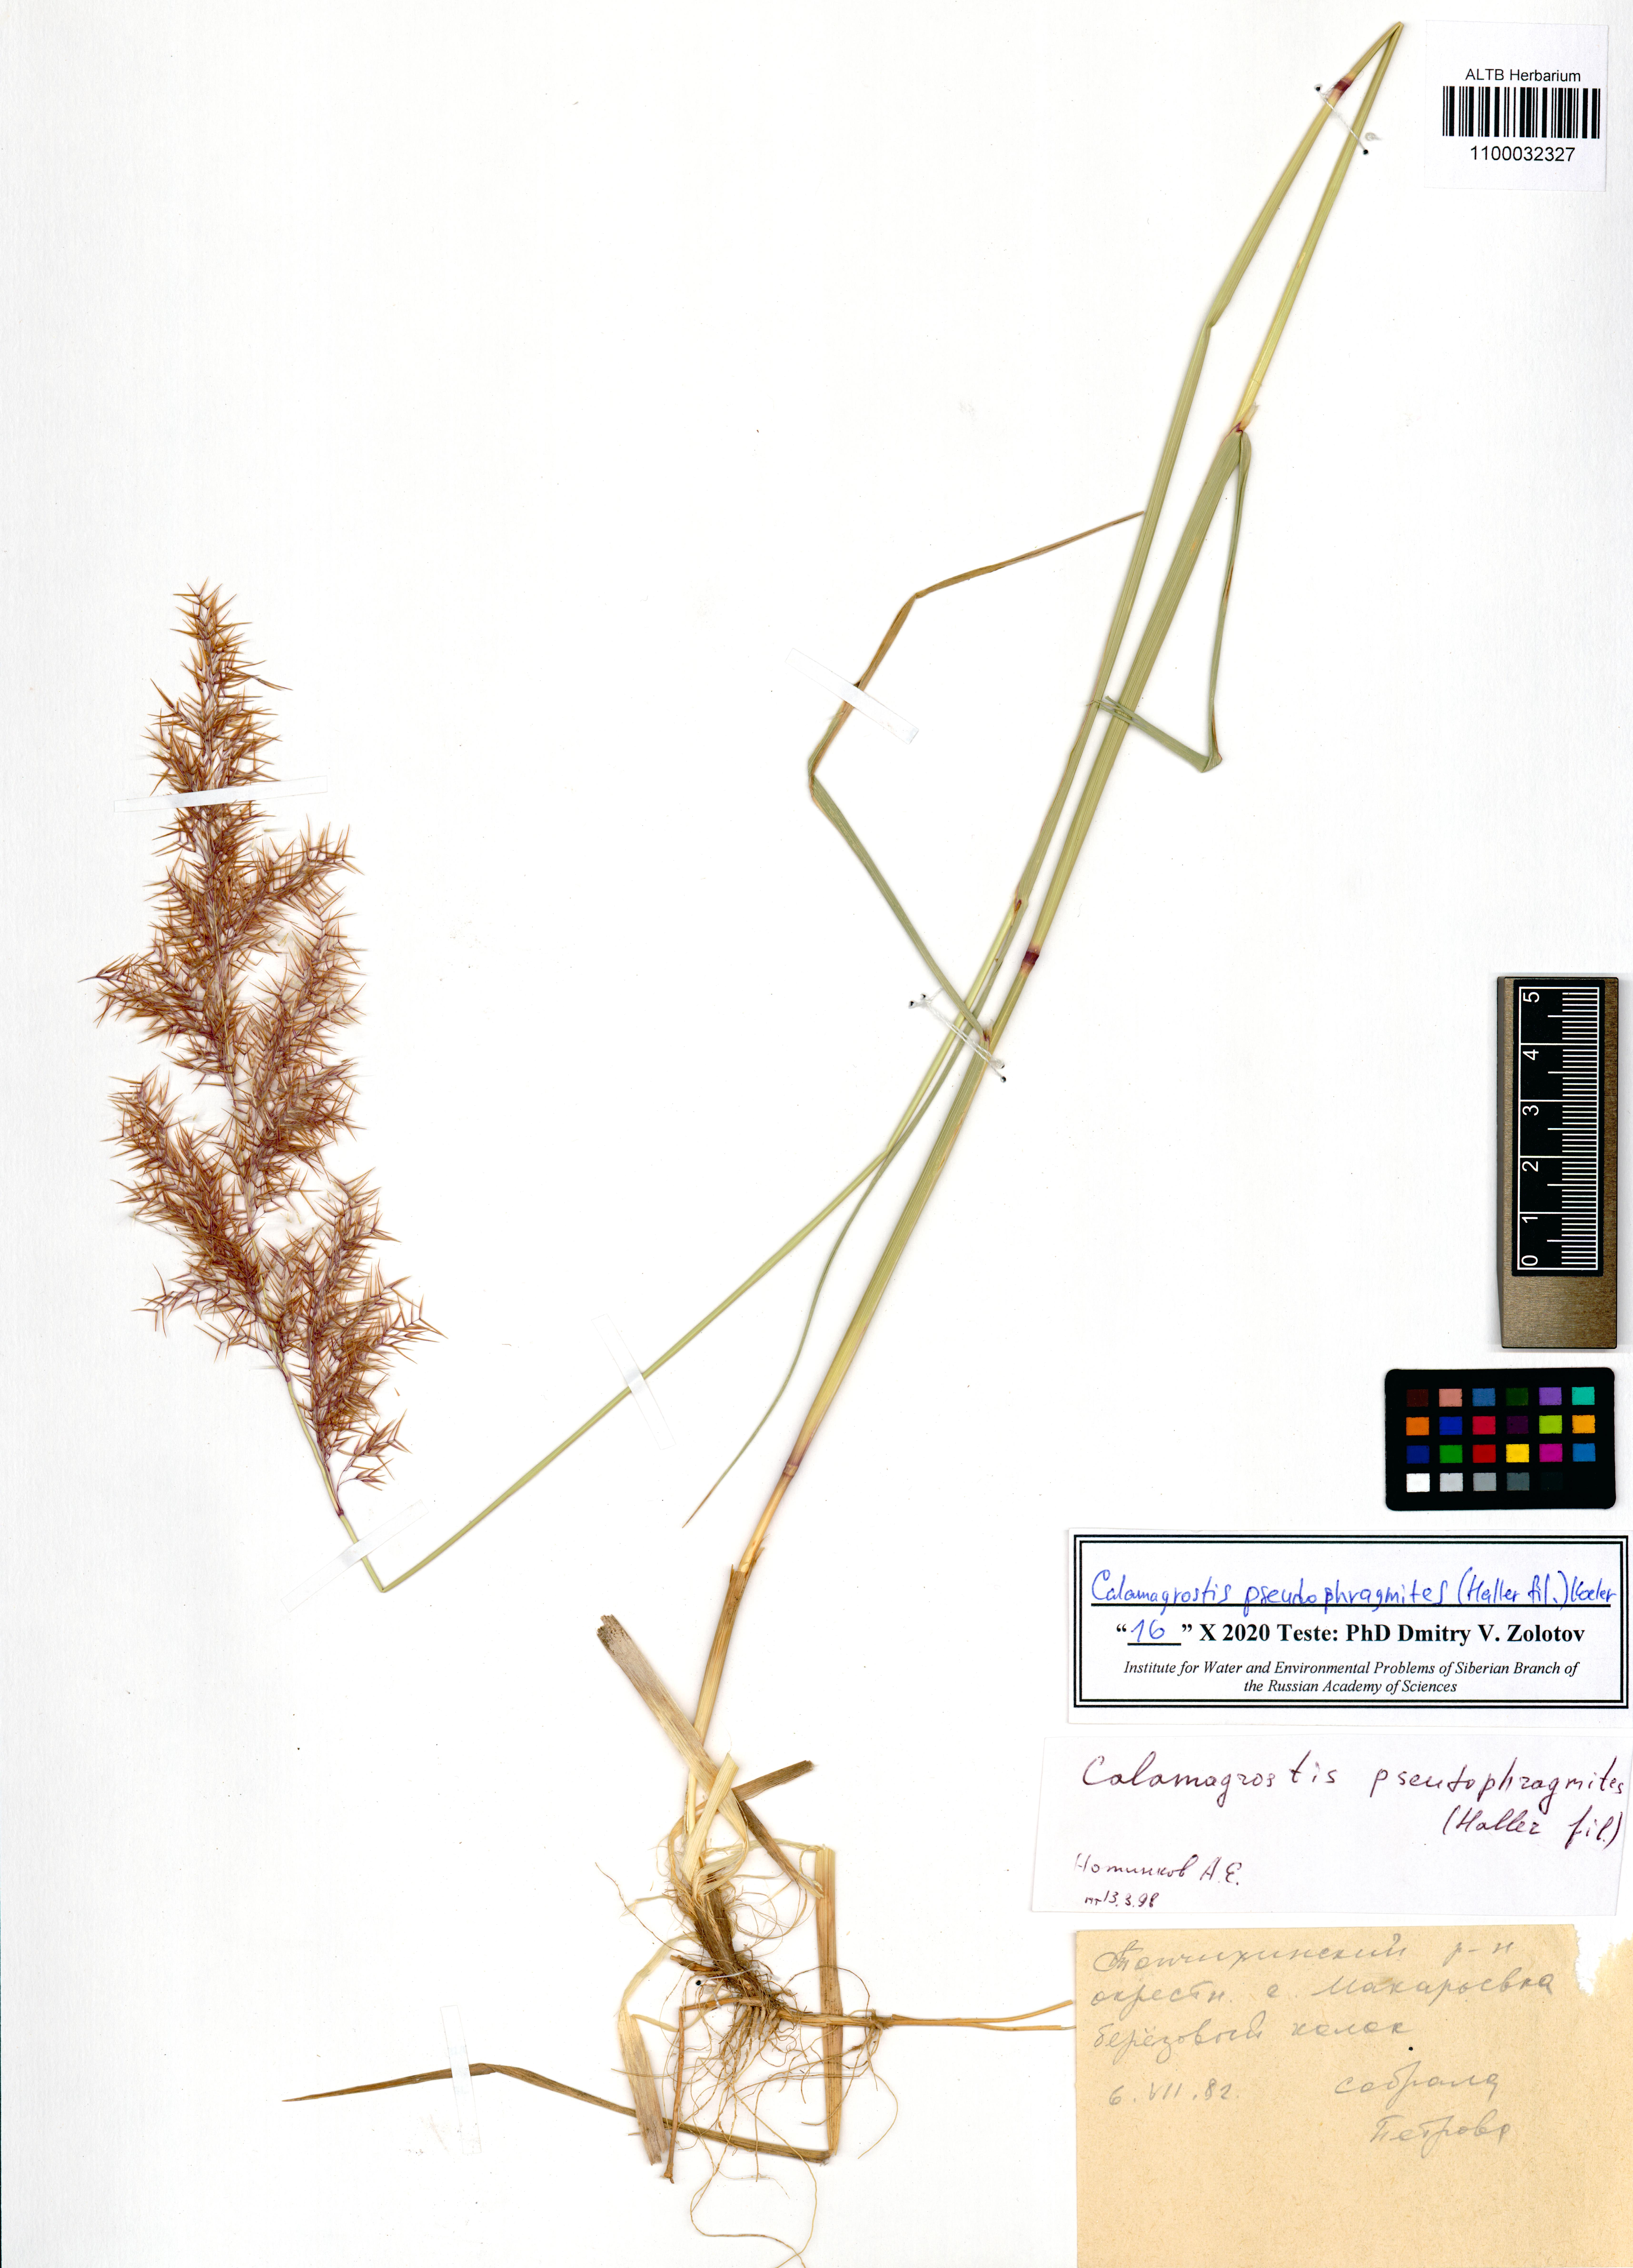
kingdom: Plantae
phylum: Tracheophyta
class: Liliopsida
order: Poales
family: Poaceae
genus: Calamagrostis
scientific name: Calamagrostis pseudophragmites
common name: Coastal small-reed
